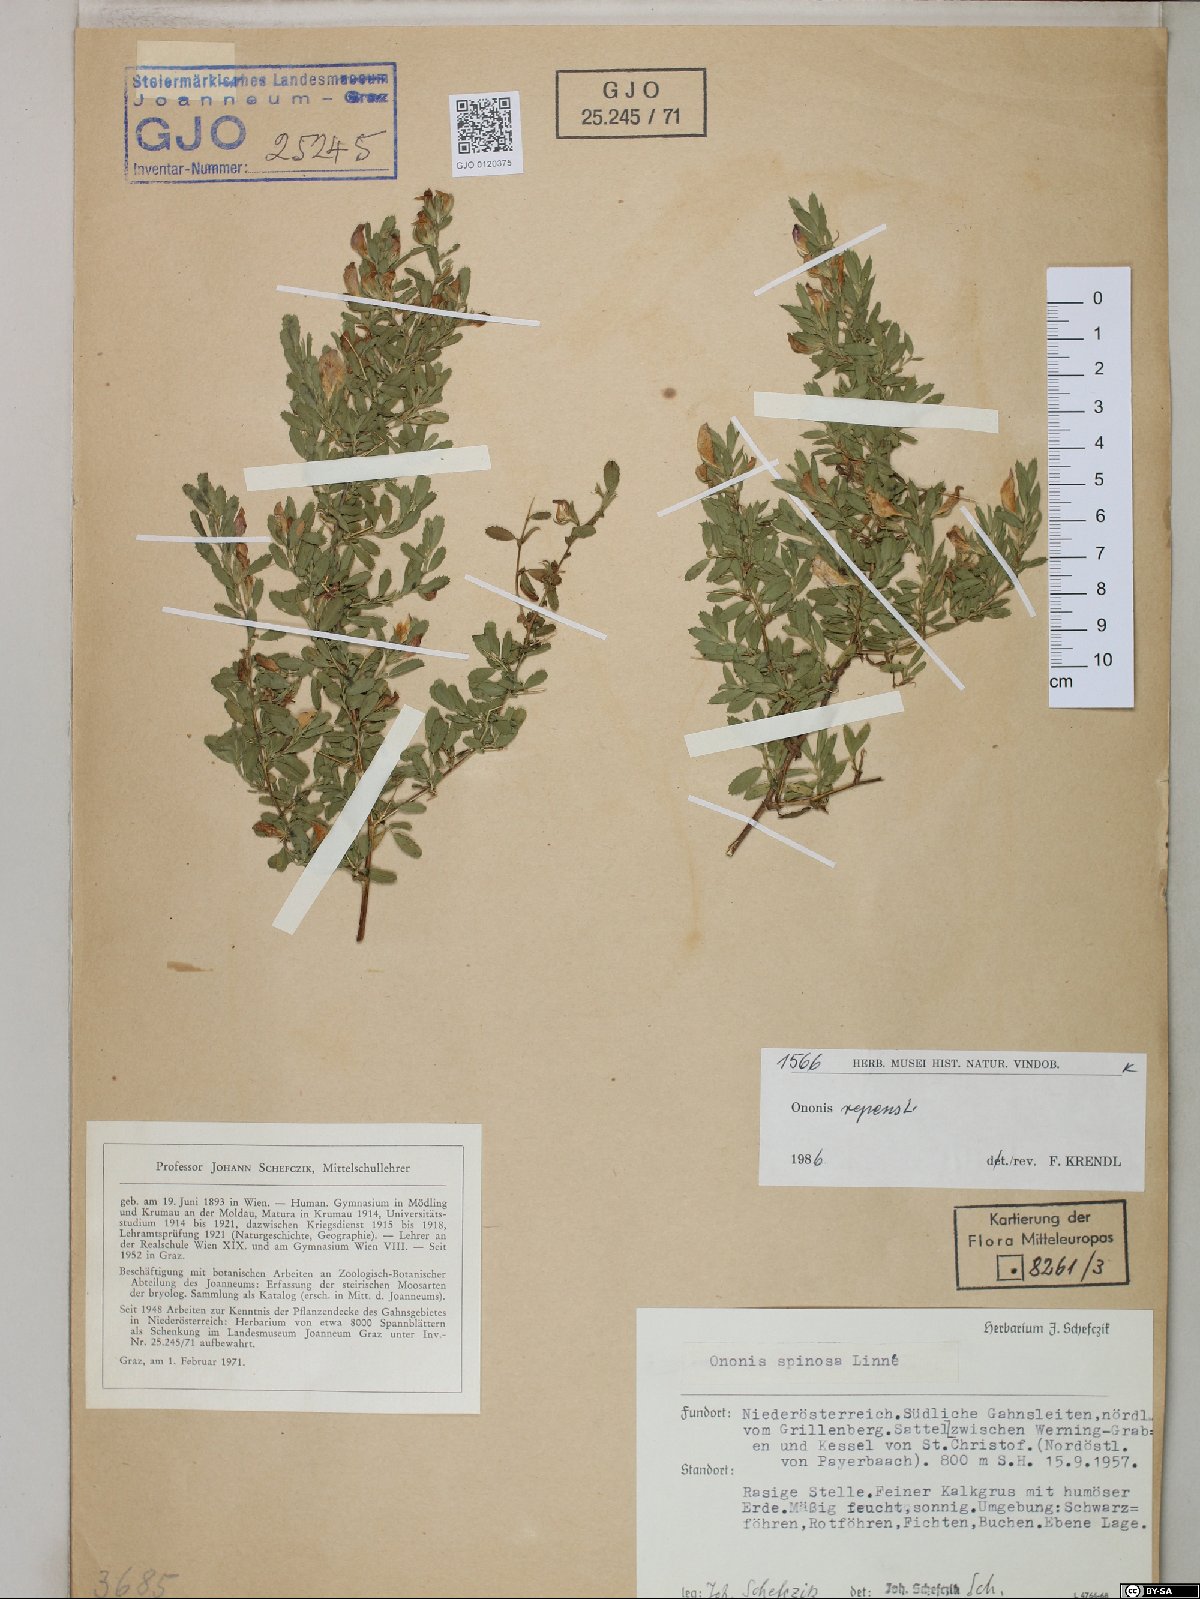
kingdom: Plantae
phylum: Tracheophyta
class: Magnoliopsida
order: Fabales
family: Fabaceae
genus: Ononis
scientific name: Ononis spinosa
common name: Spiny restharrow
